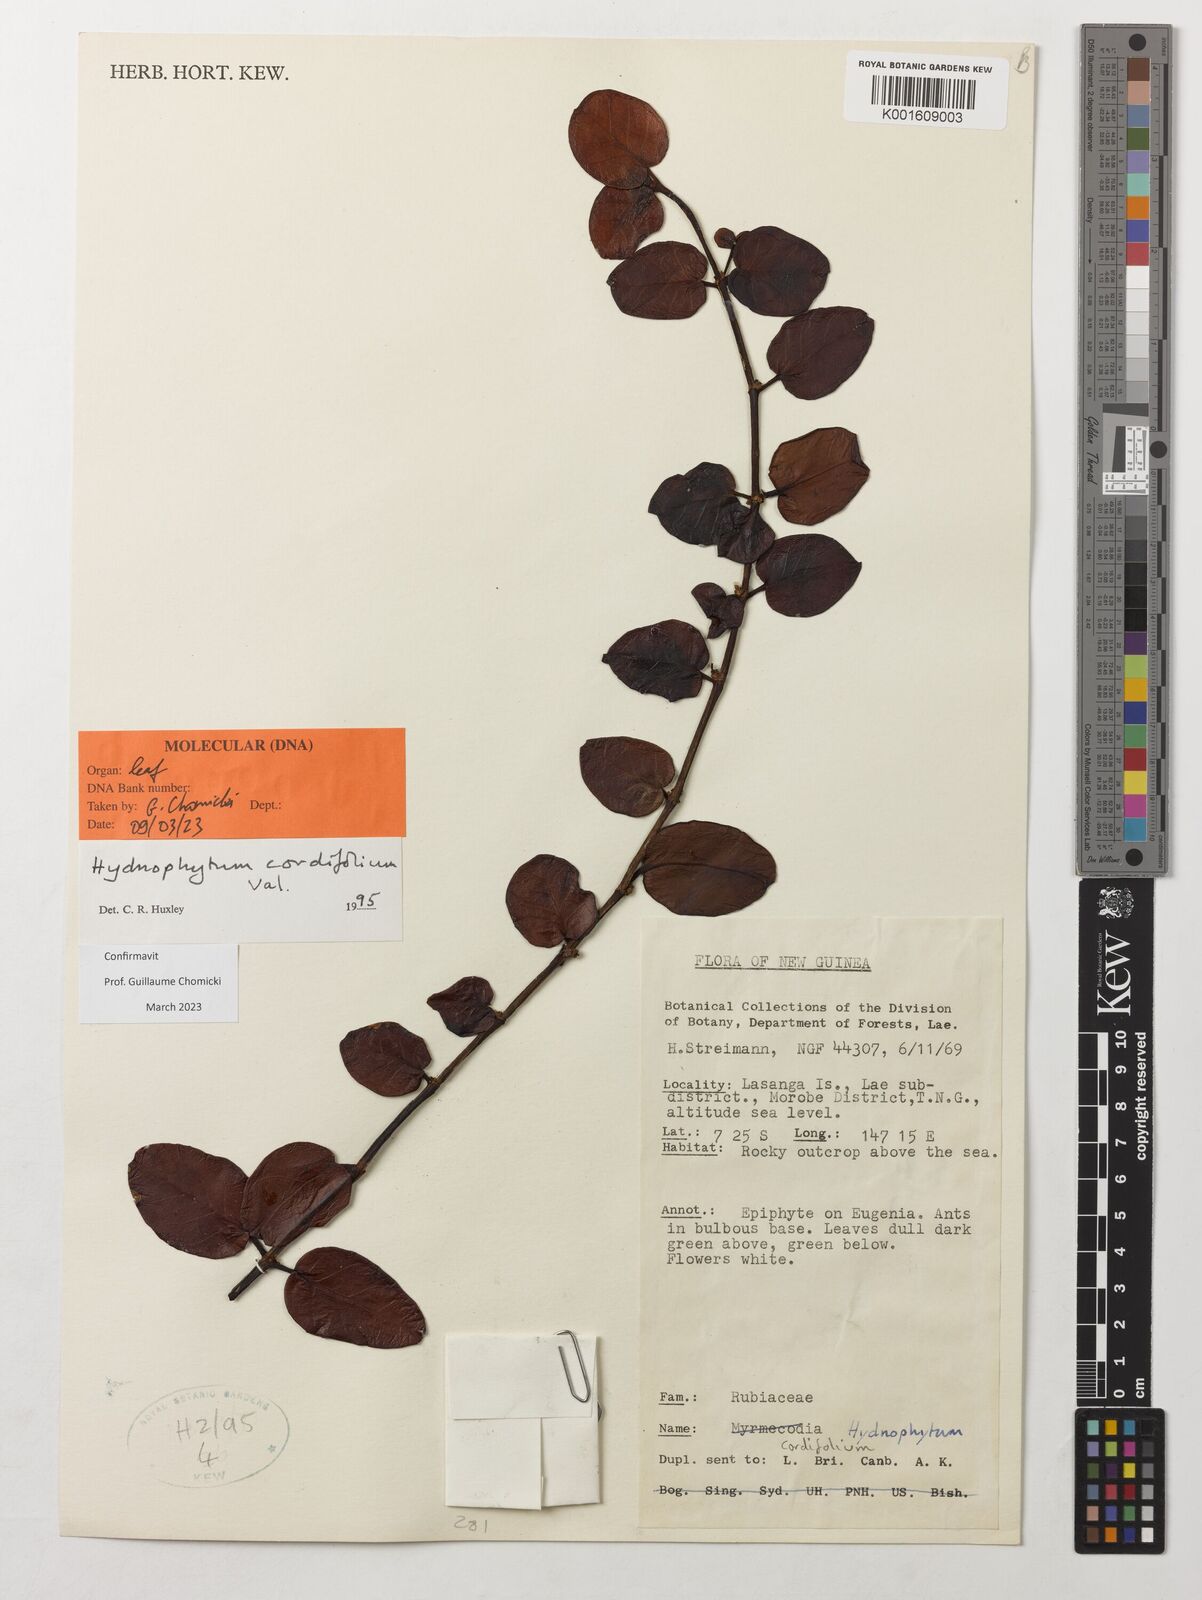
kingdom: Plantae
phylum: Tracheophyta
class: Magnoliopsida
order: Gentianales
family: Rubiaceae
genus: Hydnophytum
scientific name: Hydnophytum cordifolium
